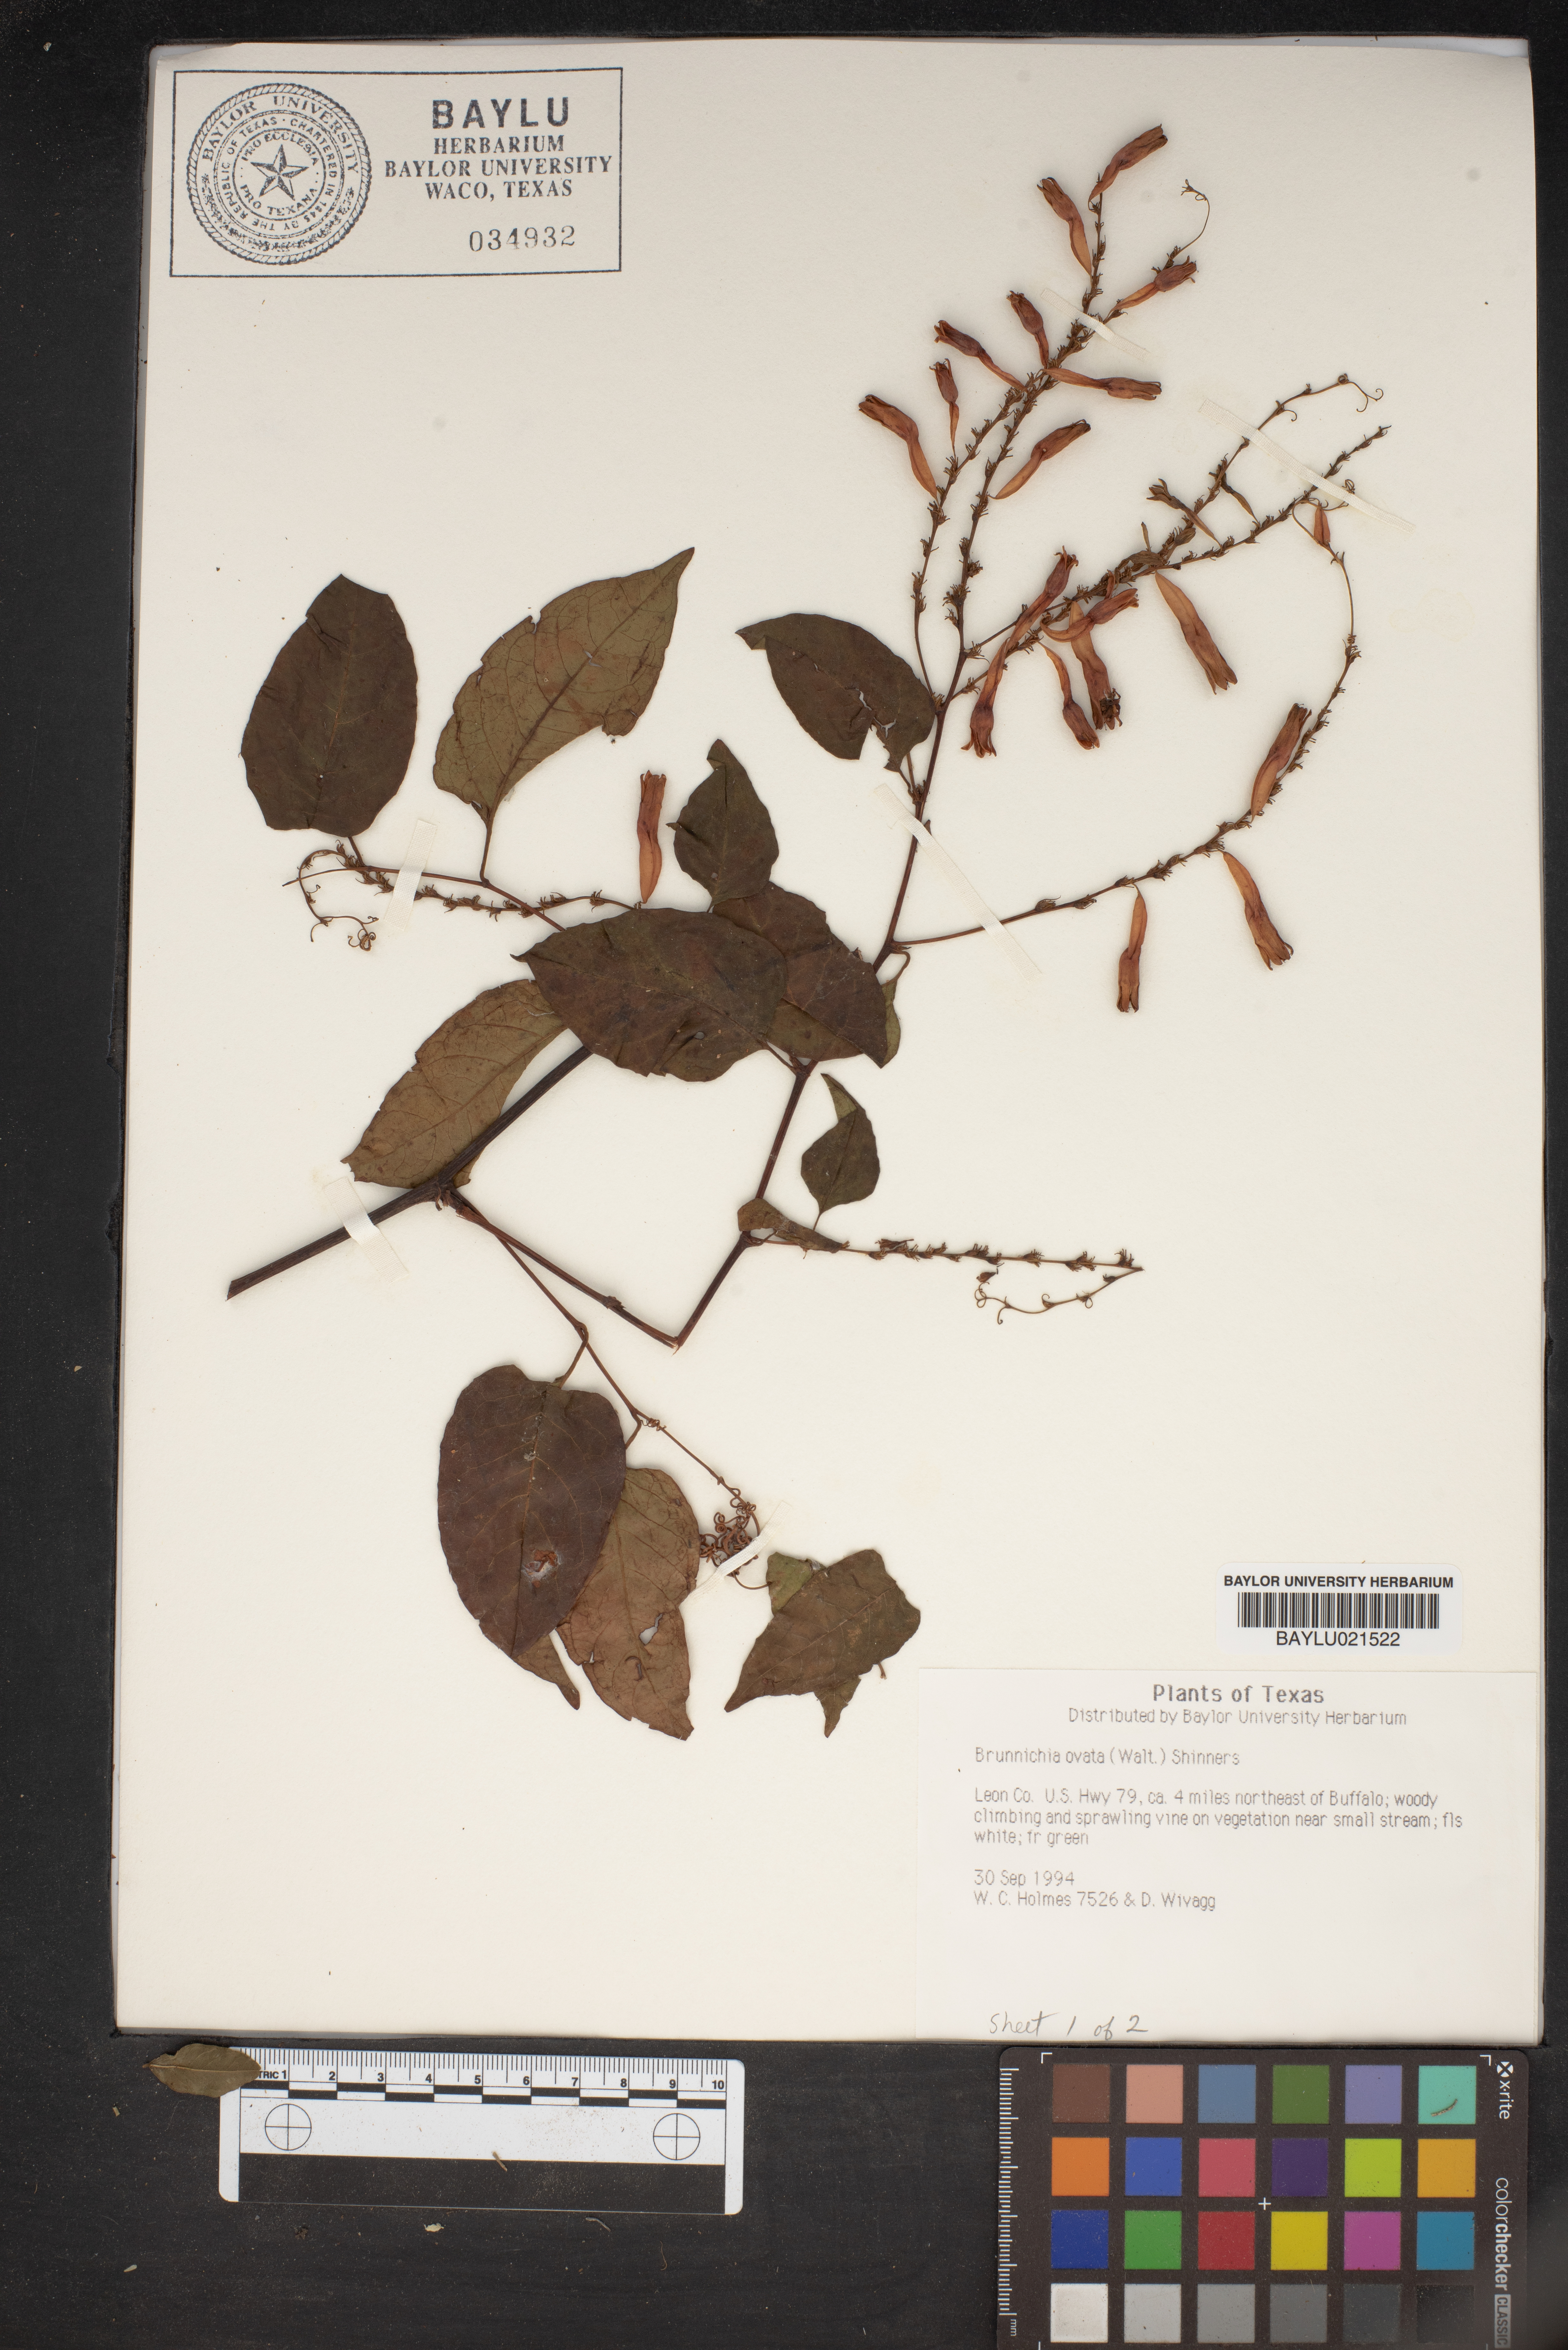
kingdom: Plantae
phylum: Tracheophyta
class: Magnoliopsida
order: Caryophyllales
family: Polygonaceae
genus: Brunnichia
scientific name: Brunnichia ovata
